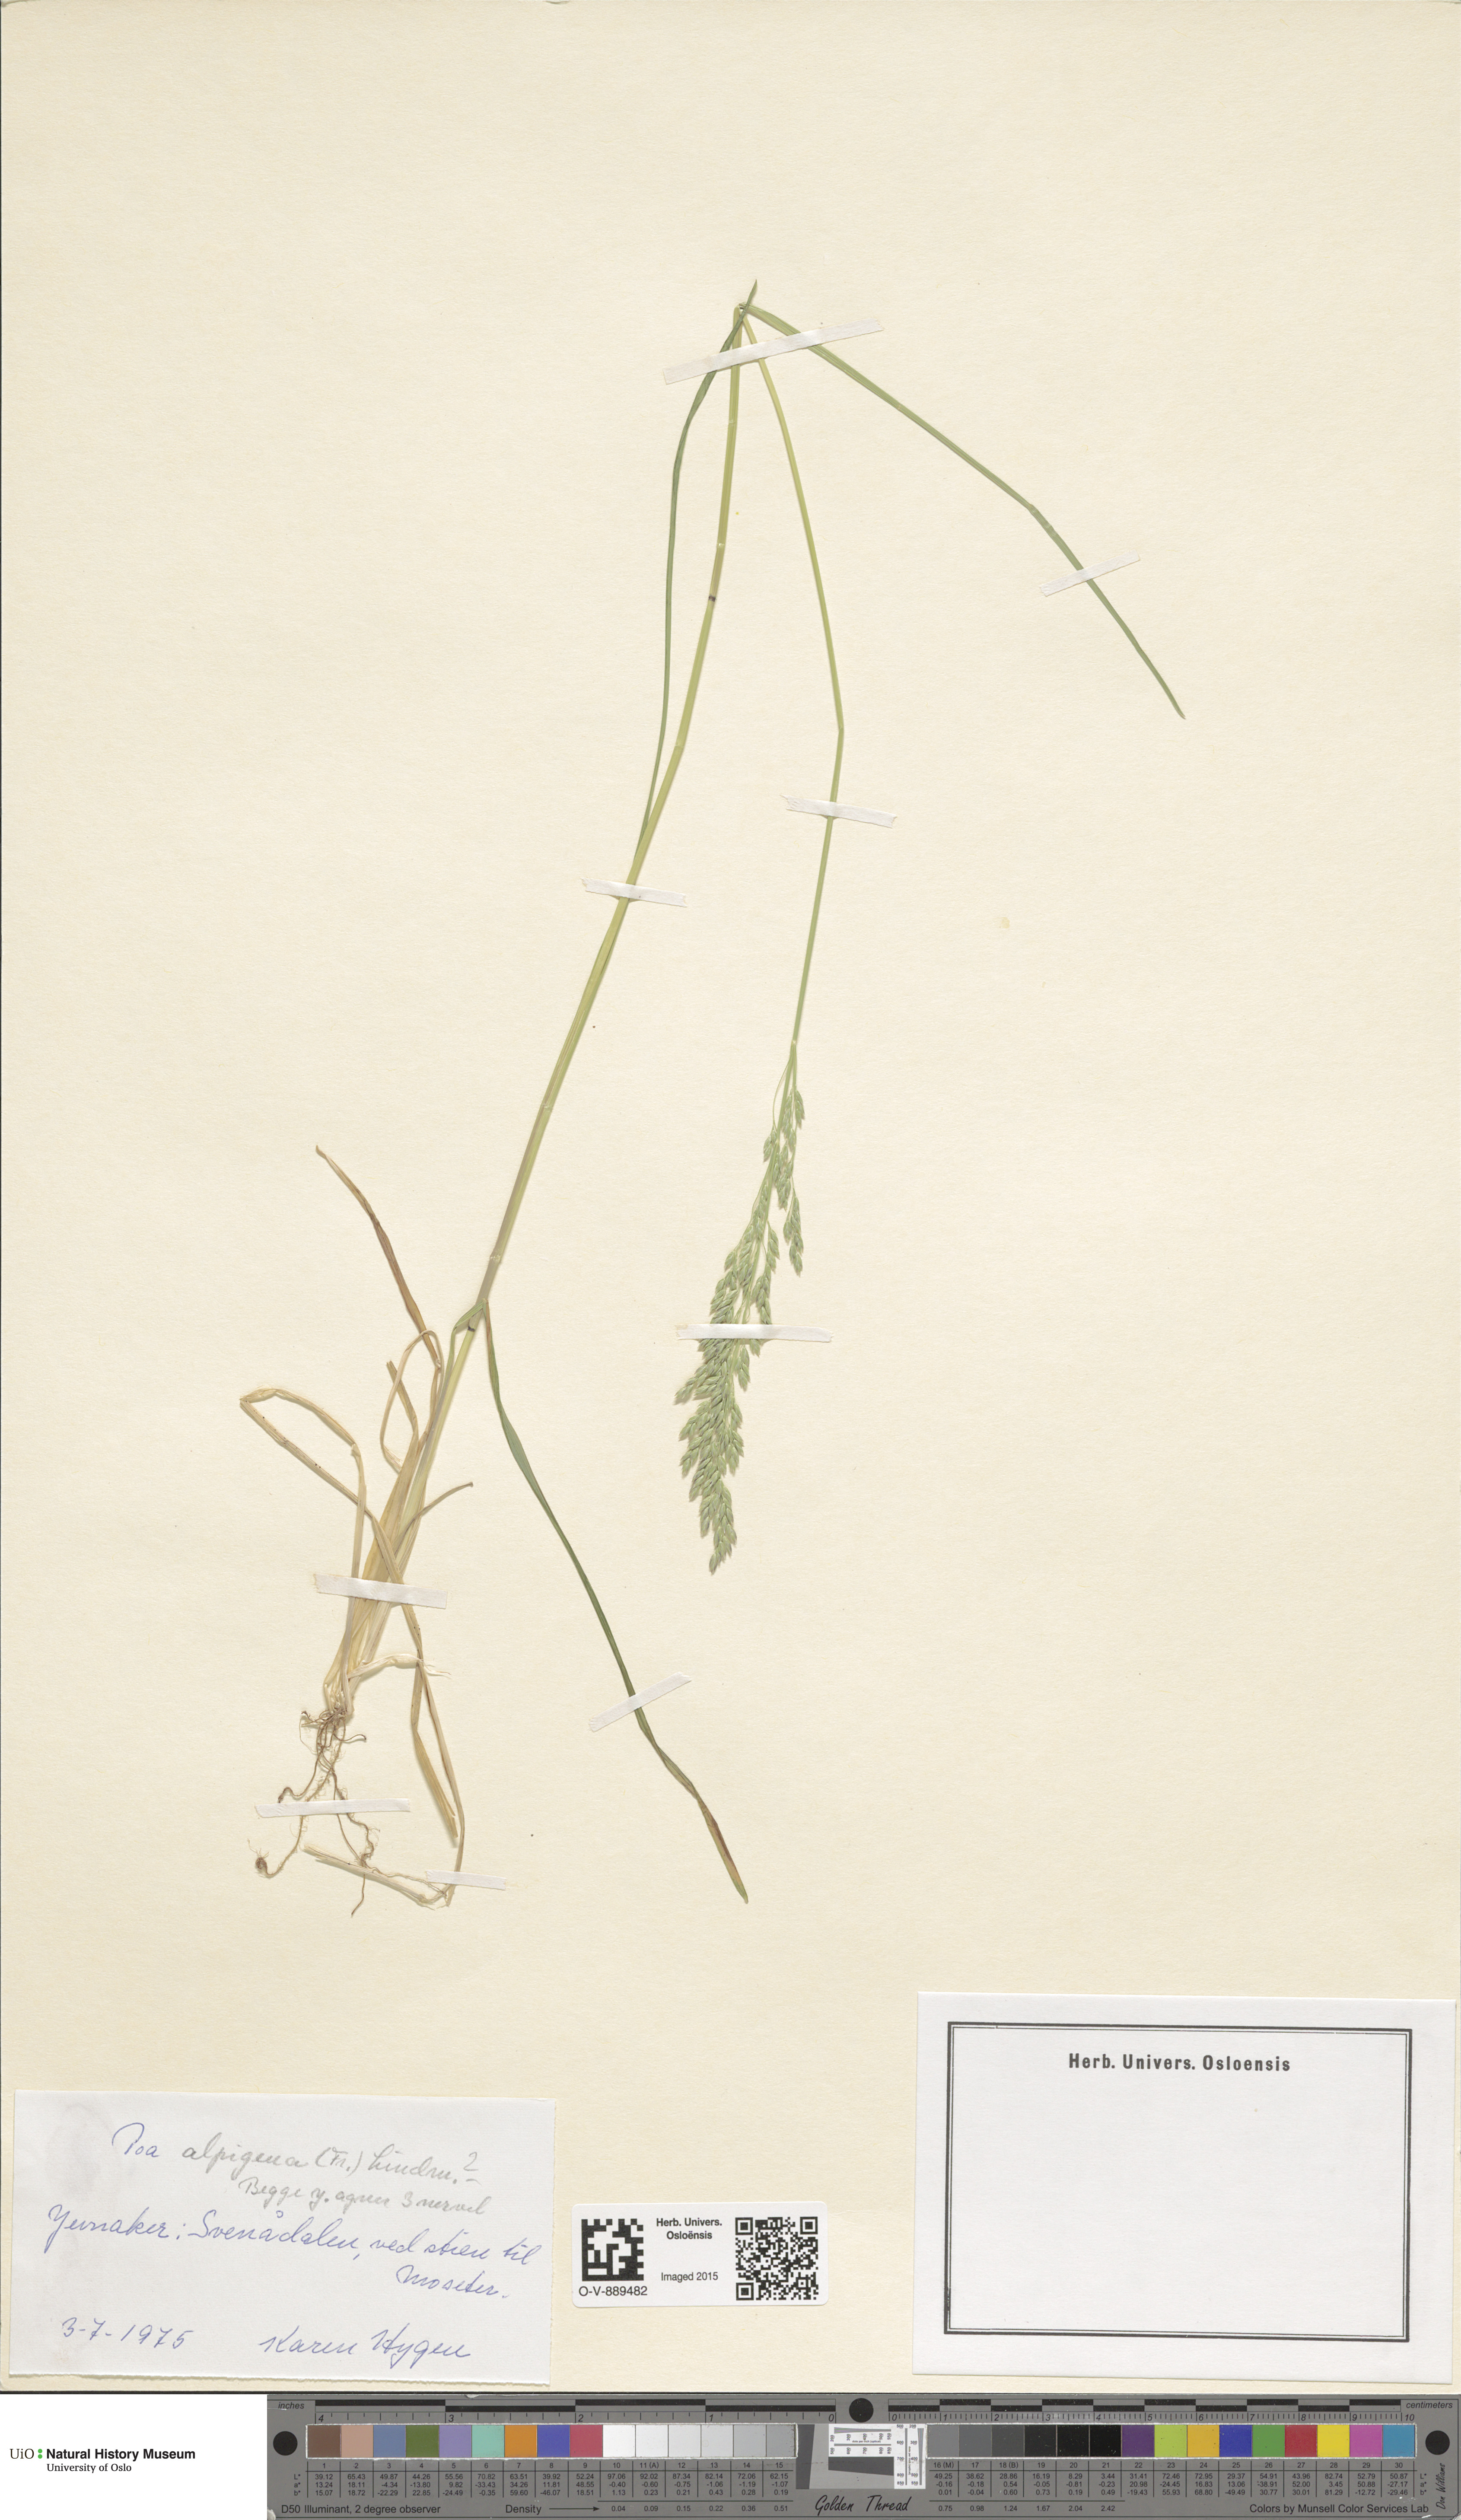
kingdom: Plantae
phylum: Tracheophyta
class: Liliopsida
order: Poales
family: Poaceae
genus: Poa
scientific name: Poa alpigena
